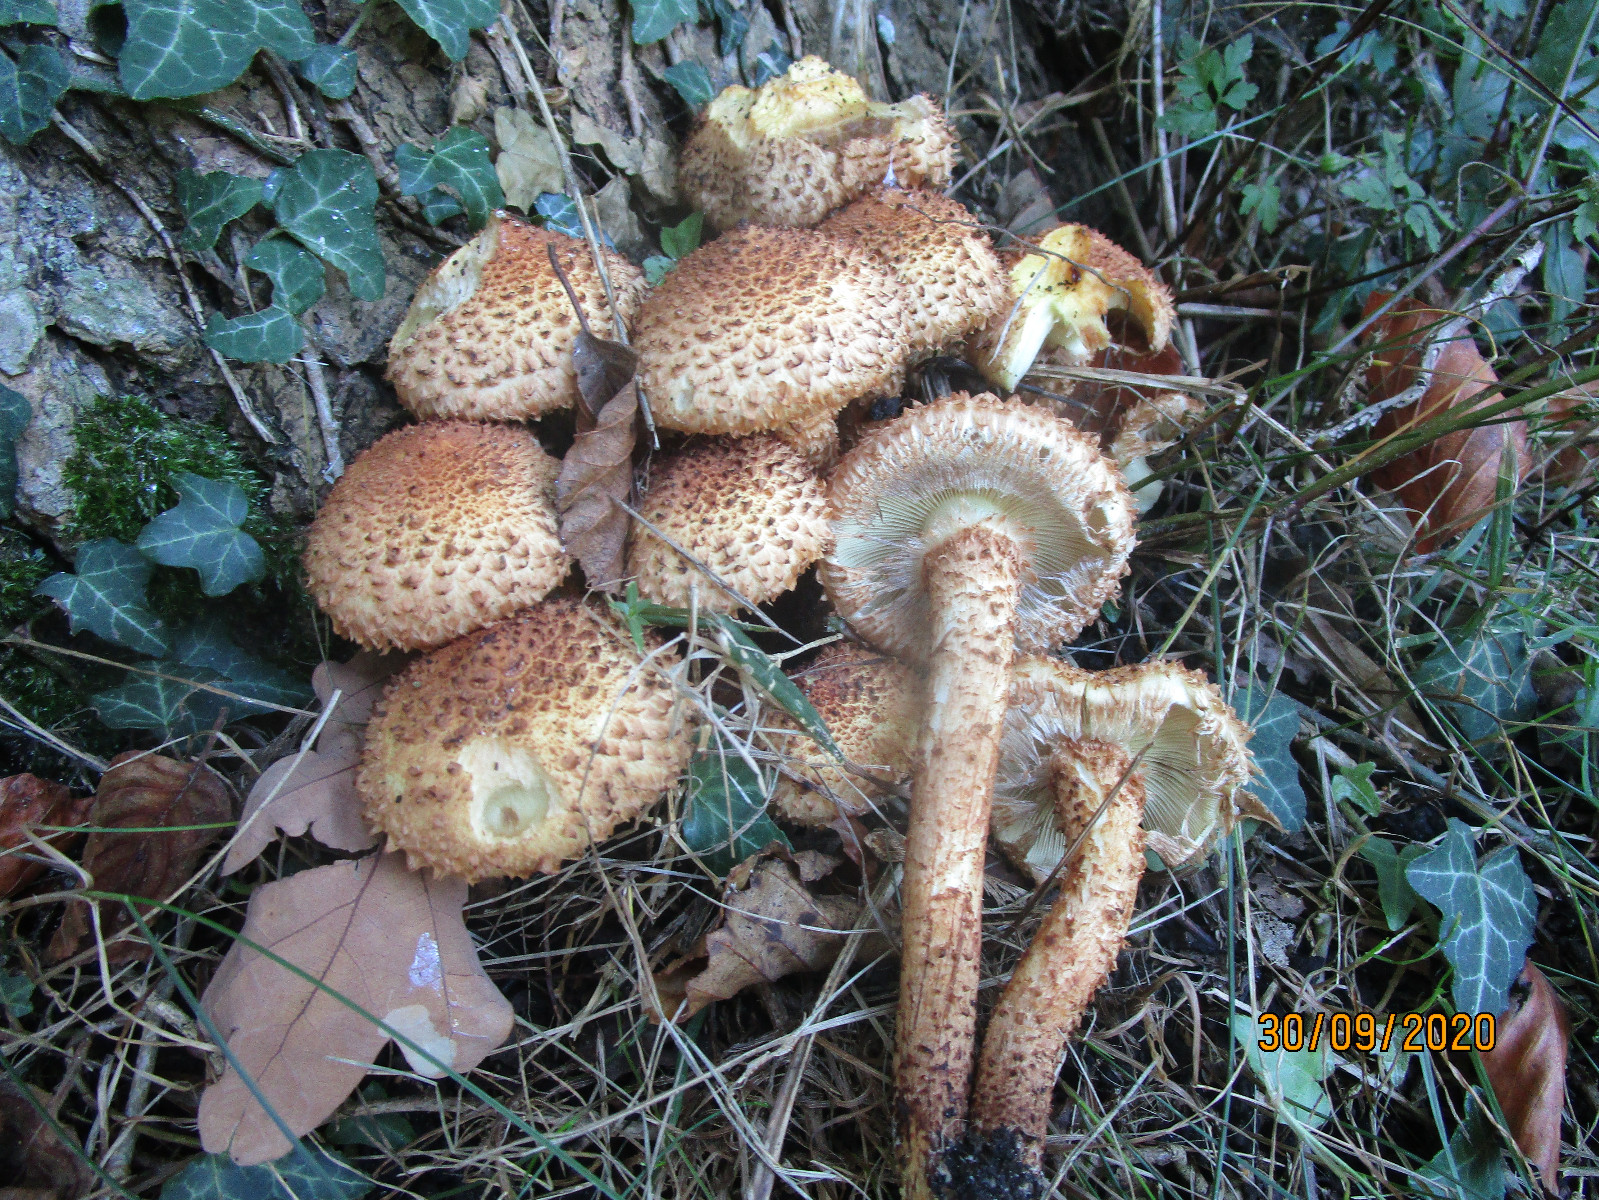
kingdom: Fungi
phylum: Basidiomycota
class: Agaricomycetes
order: Agaricales
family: Strophariaceae
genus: Pholiota
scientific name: Pholiota squarrosa
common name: krumskællet skælhat
